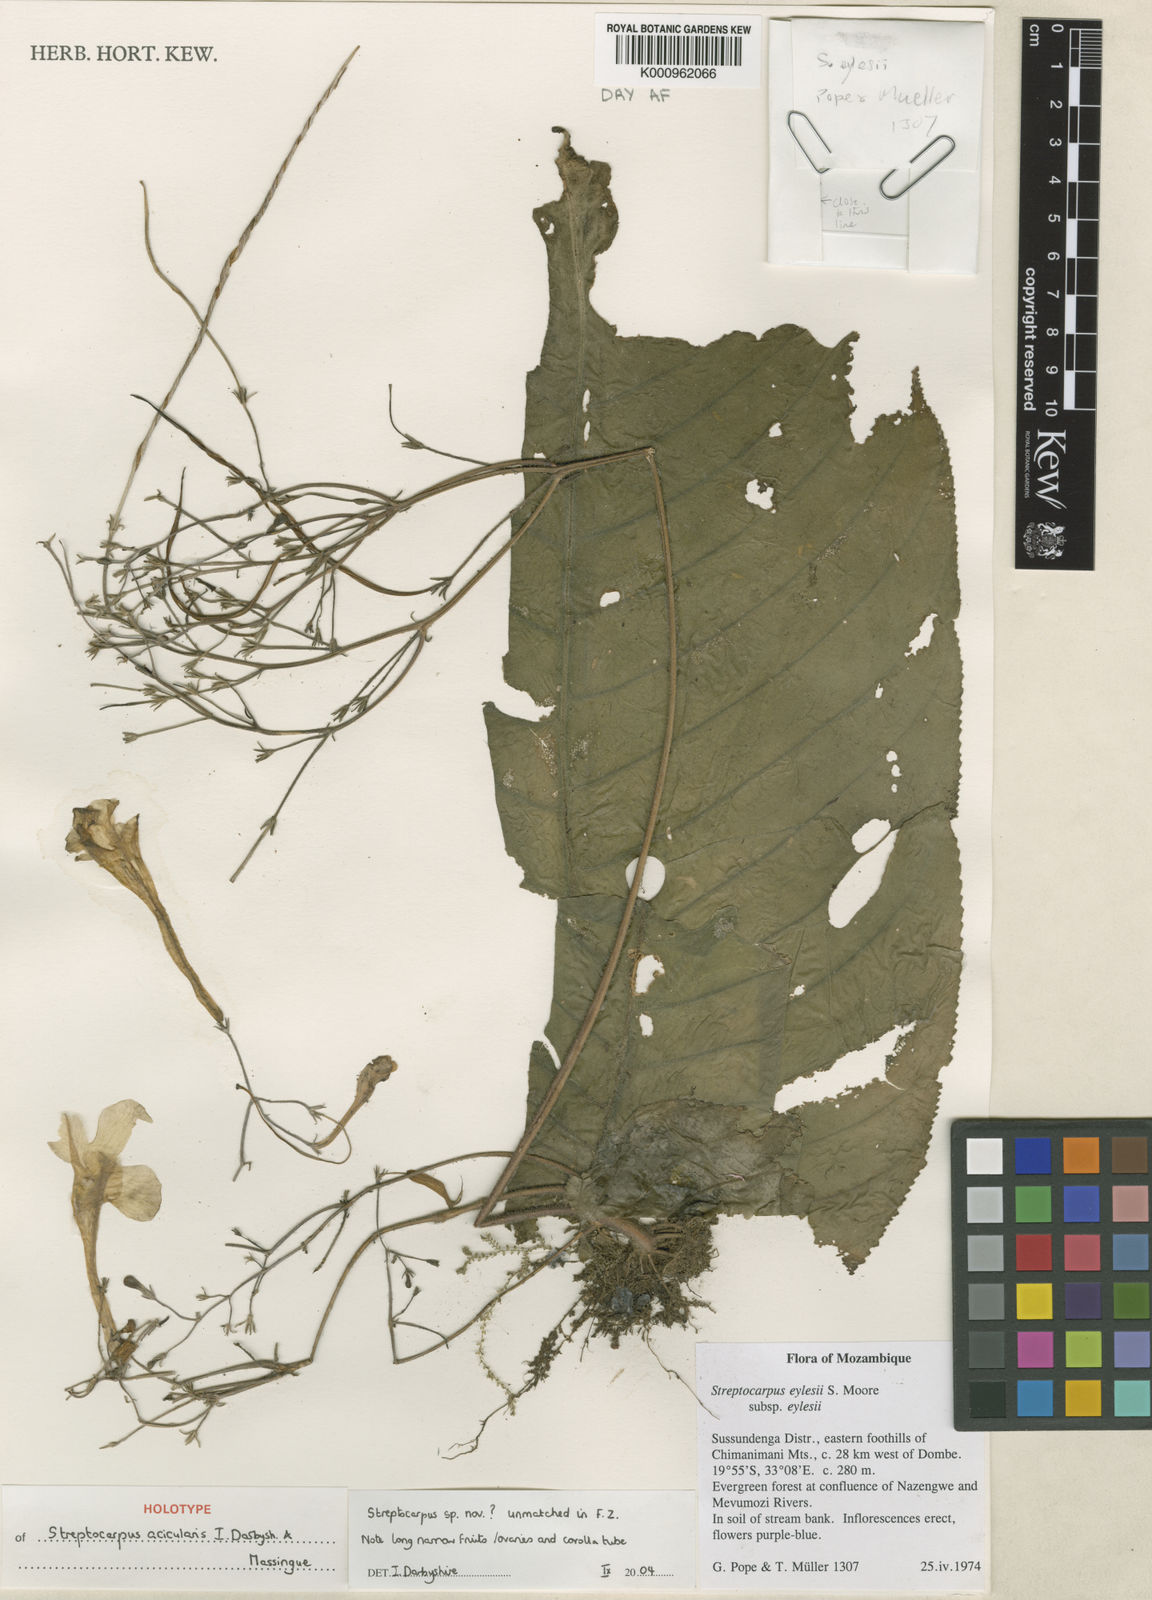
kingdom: Plantae
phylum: Tracheophyta
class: Magnoliopsida
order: Lamiales
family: Gesneriaceae
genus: Streptocarpus
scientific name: Streptocarpus
